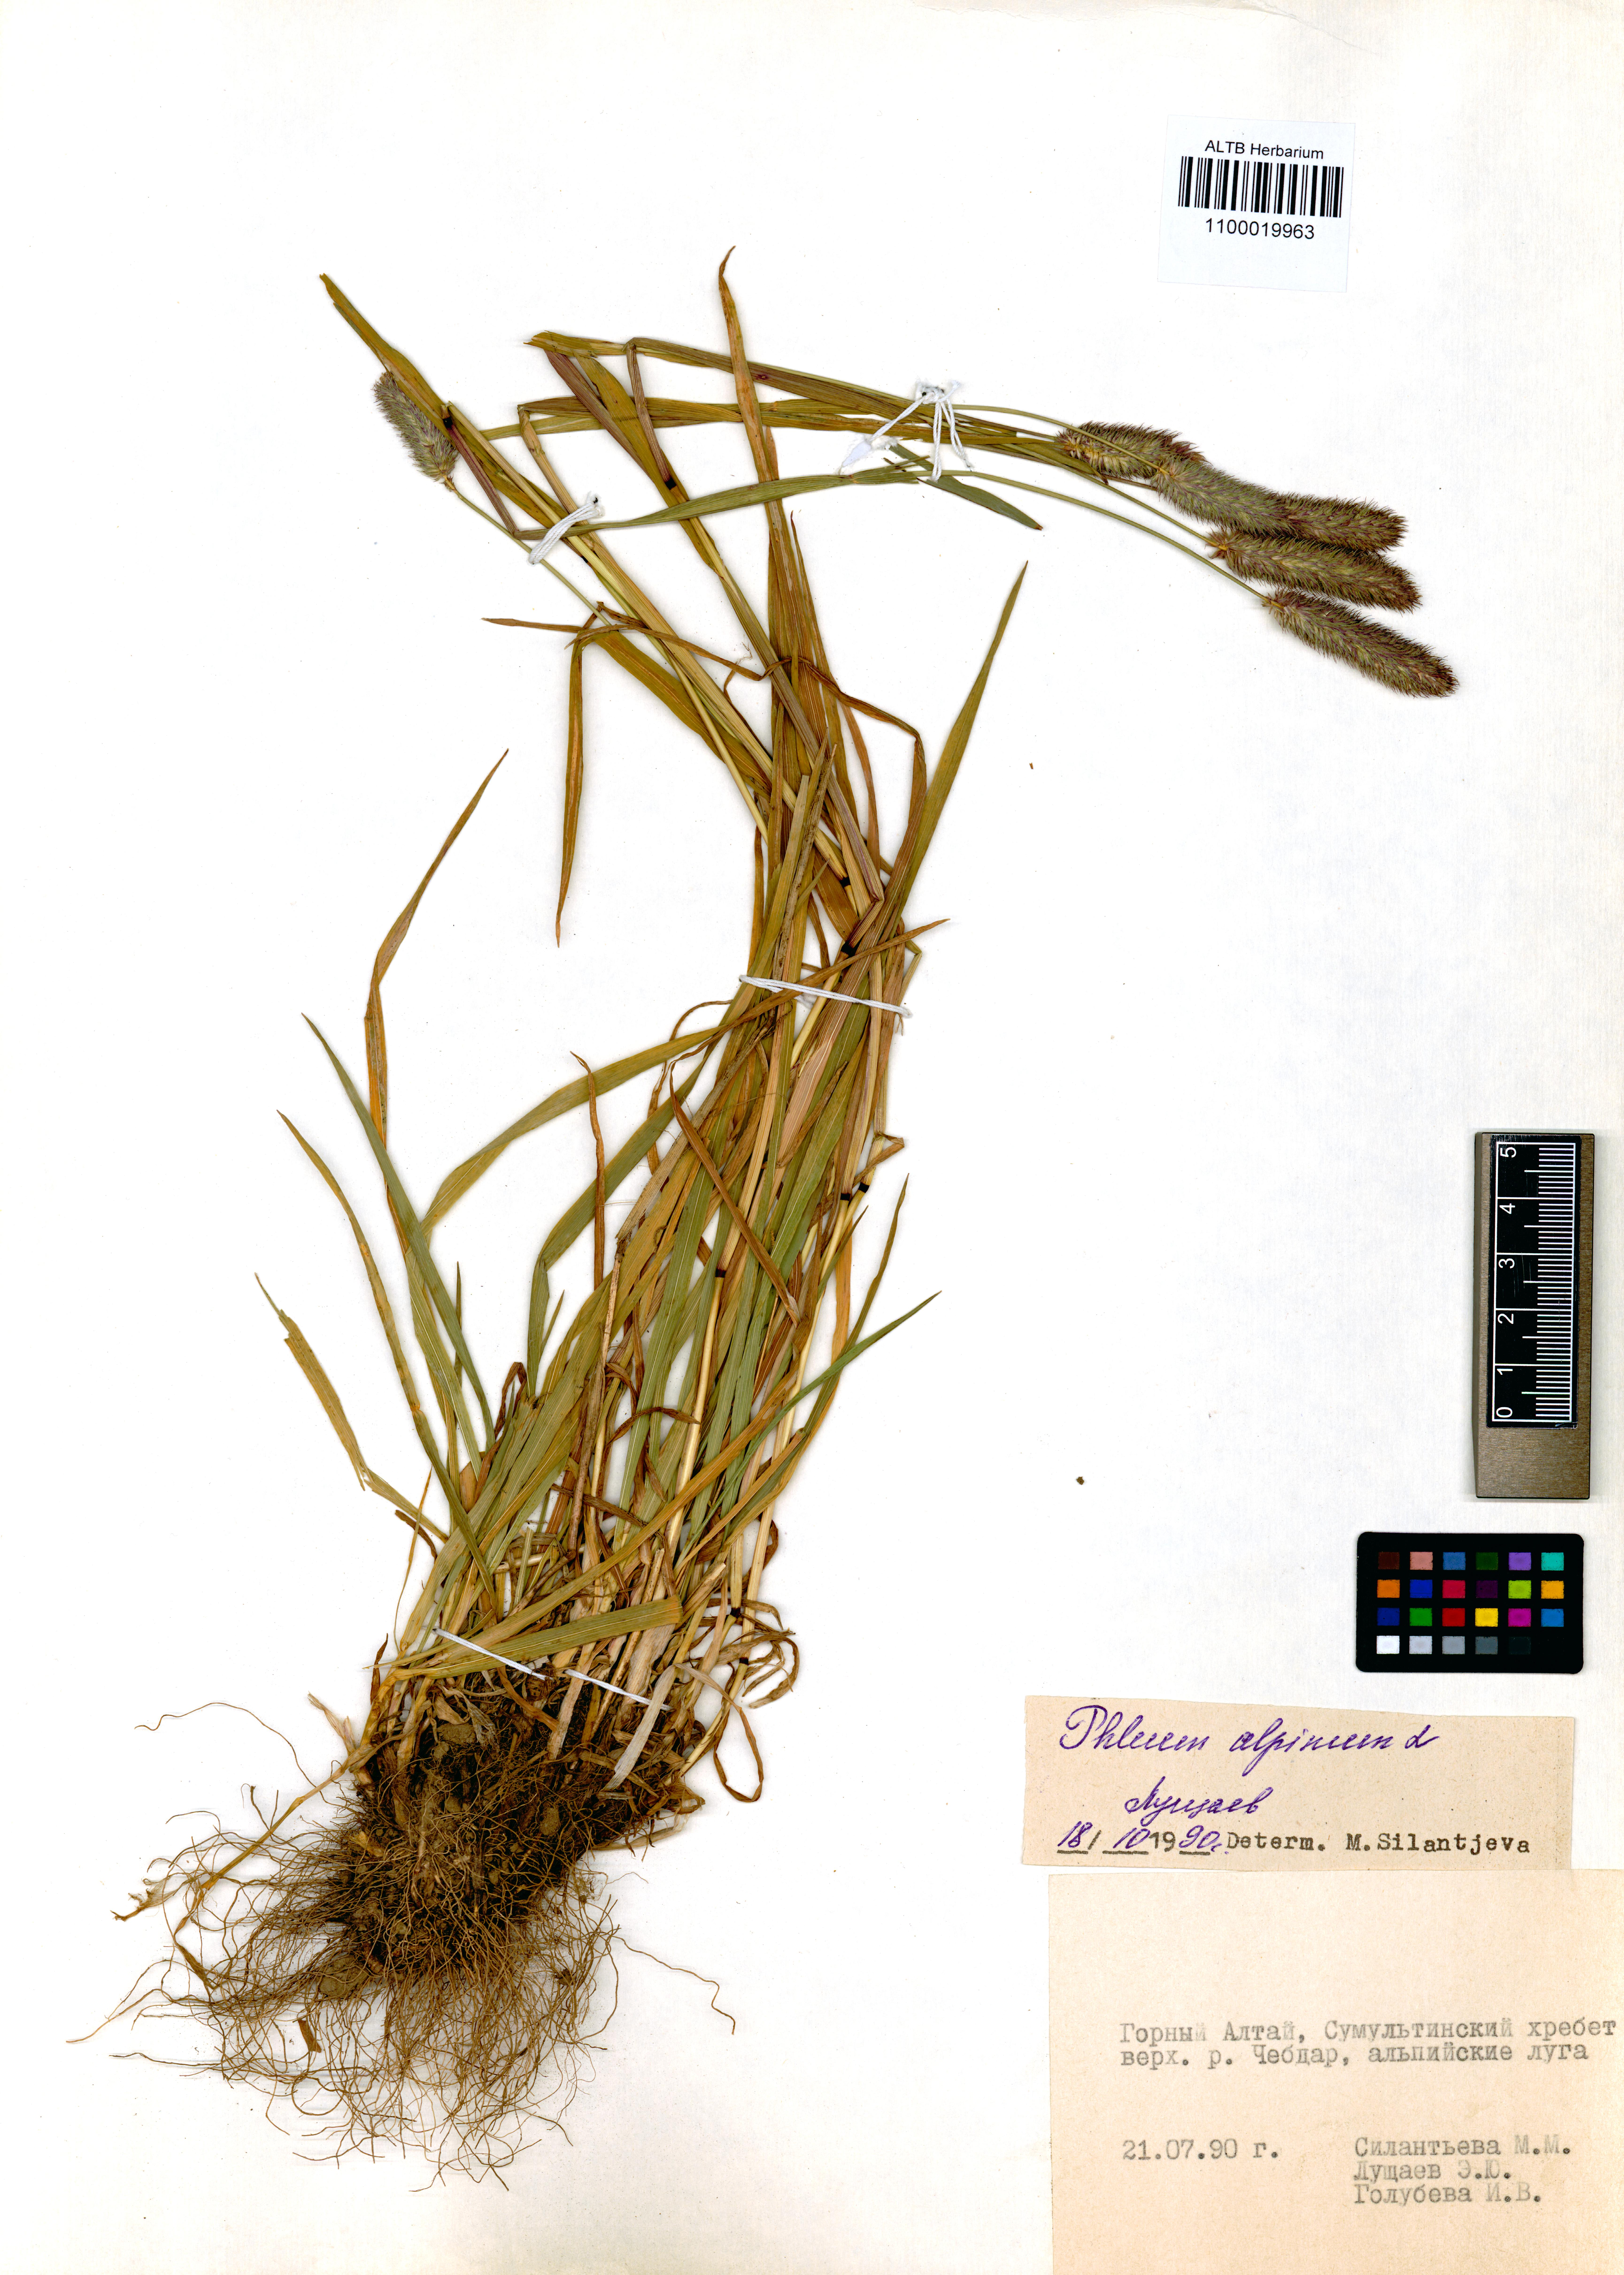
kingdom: Plantae
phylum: Tracheophyta
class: Liliopsida
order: Poales
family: Poaceae
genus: Phleum
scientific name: Phleum alpinum
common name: Alpine cat's-tail
